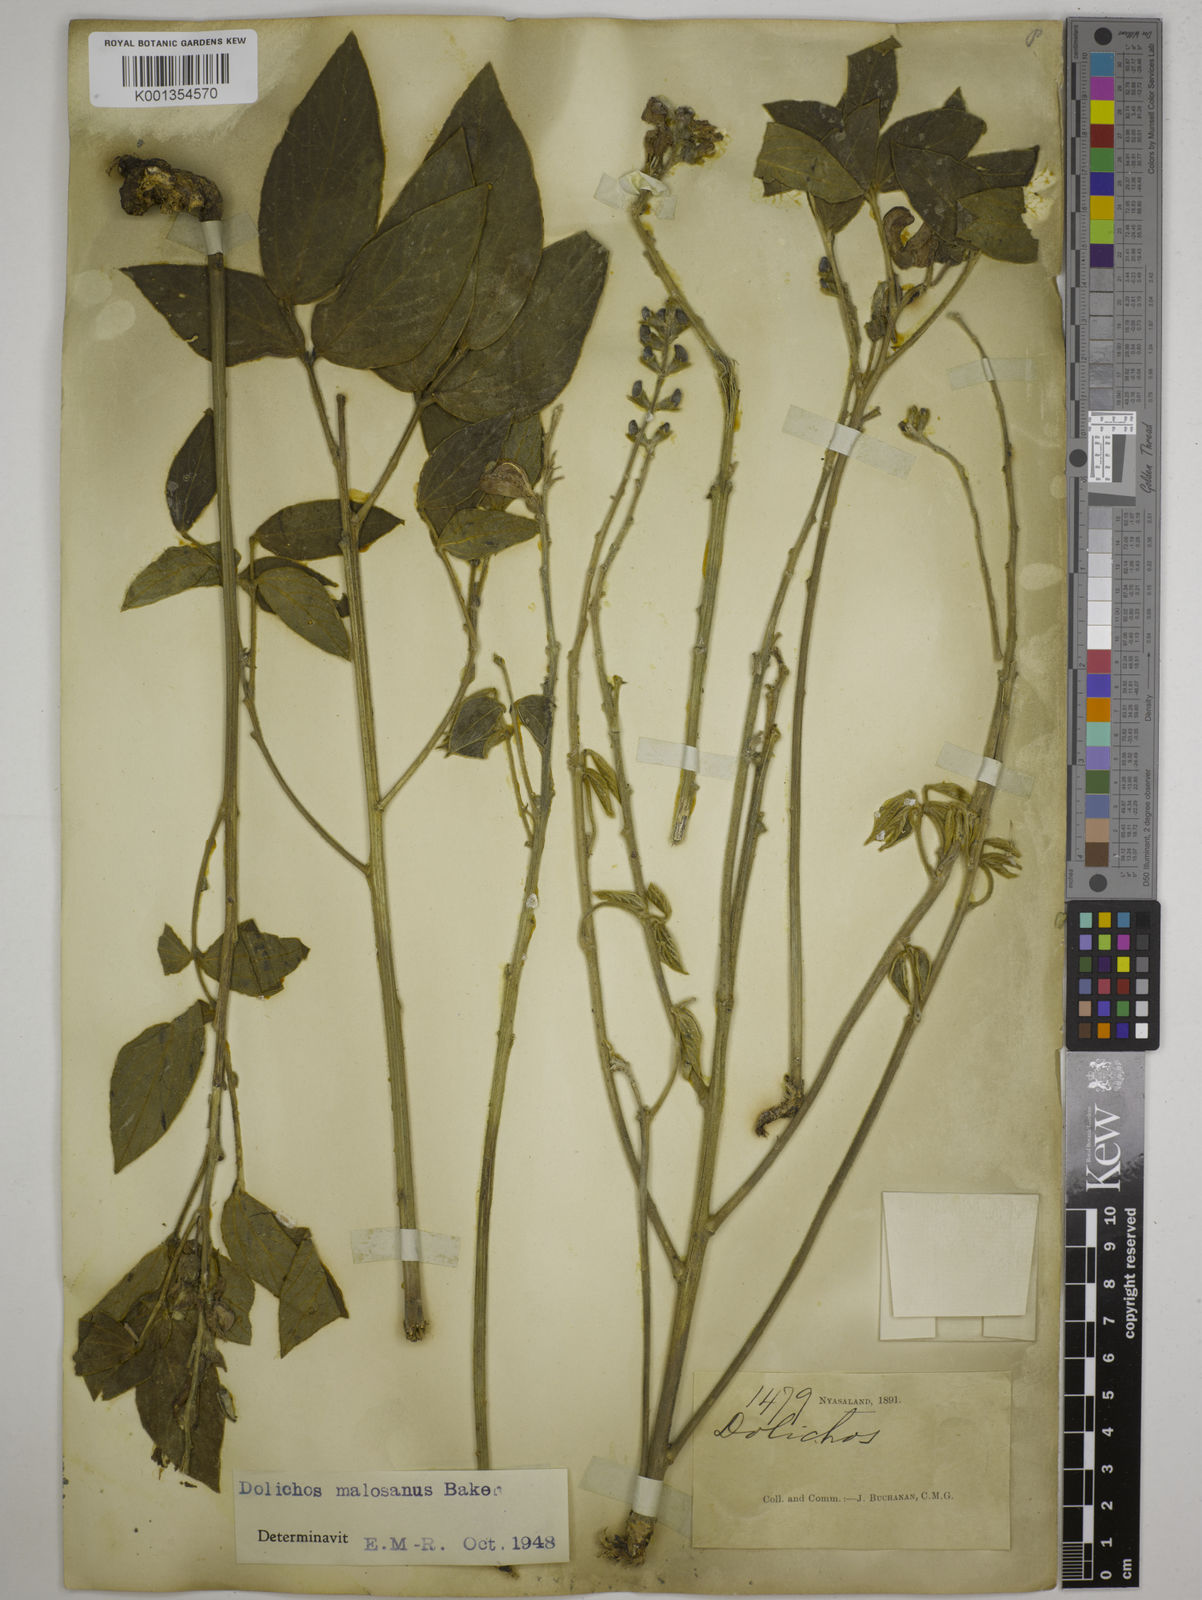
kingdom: Plantae
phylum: Tracheophyta
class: Magnoliopsida
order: Fabales
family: Fabaceae
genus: Dolichos
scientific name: Dolichos kilimandscharicus
